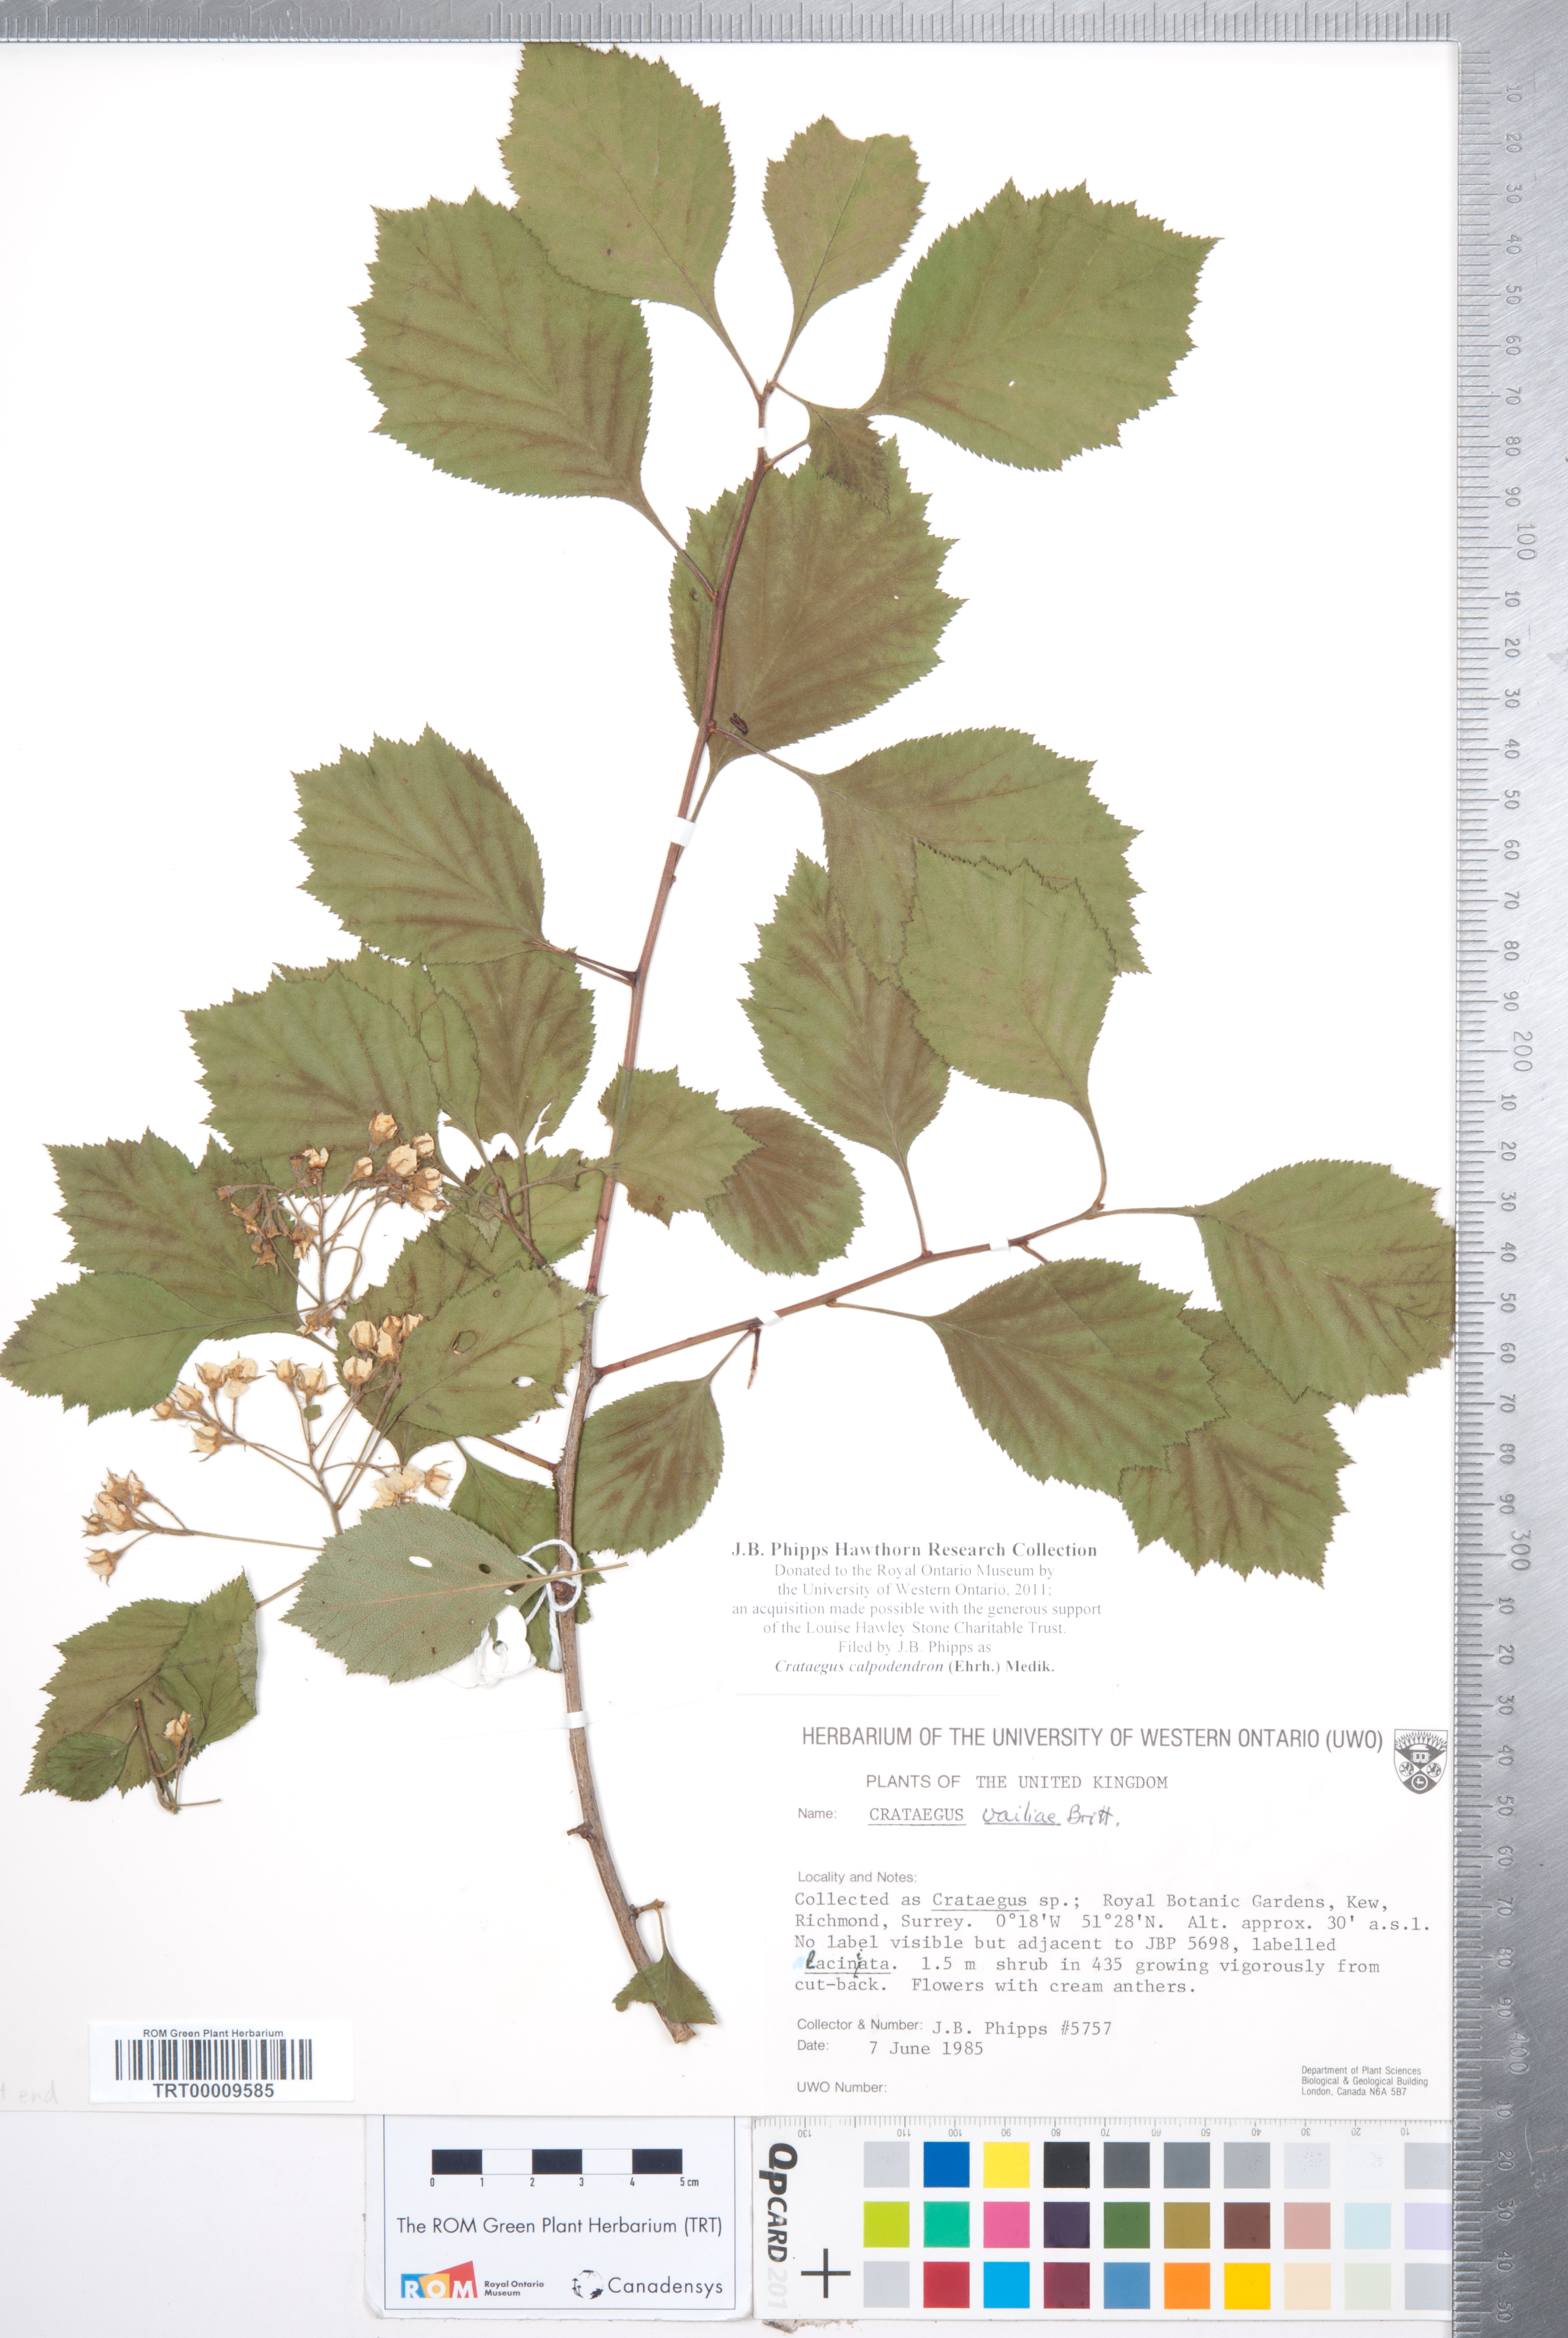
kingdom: Plantae
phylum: Tracheophyta
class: Magnoliopsida
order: Rosales
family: Rosaceae
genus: Crataegus
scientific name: Crataegus calpodendron
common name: Pear hawthorn
